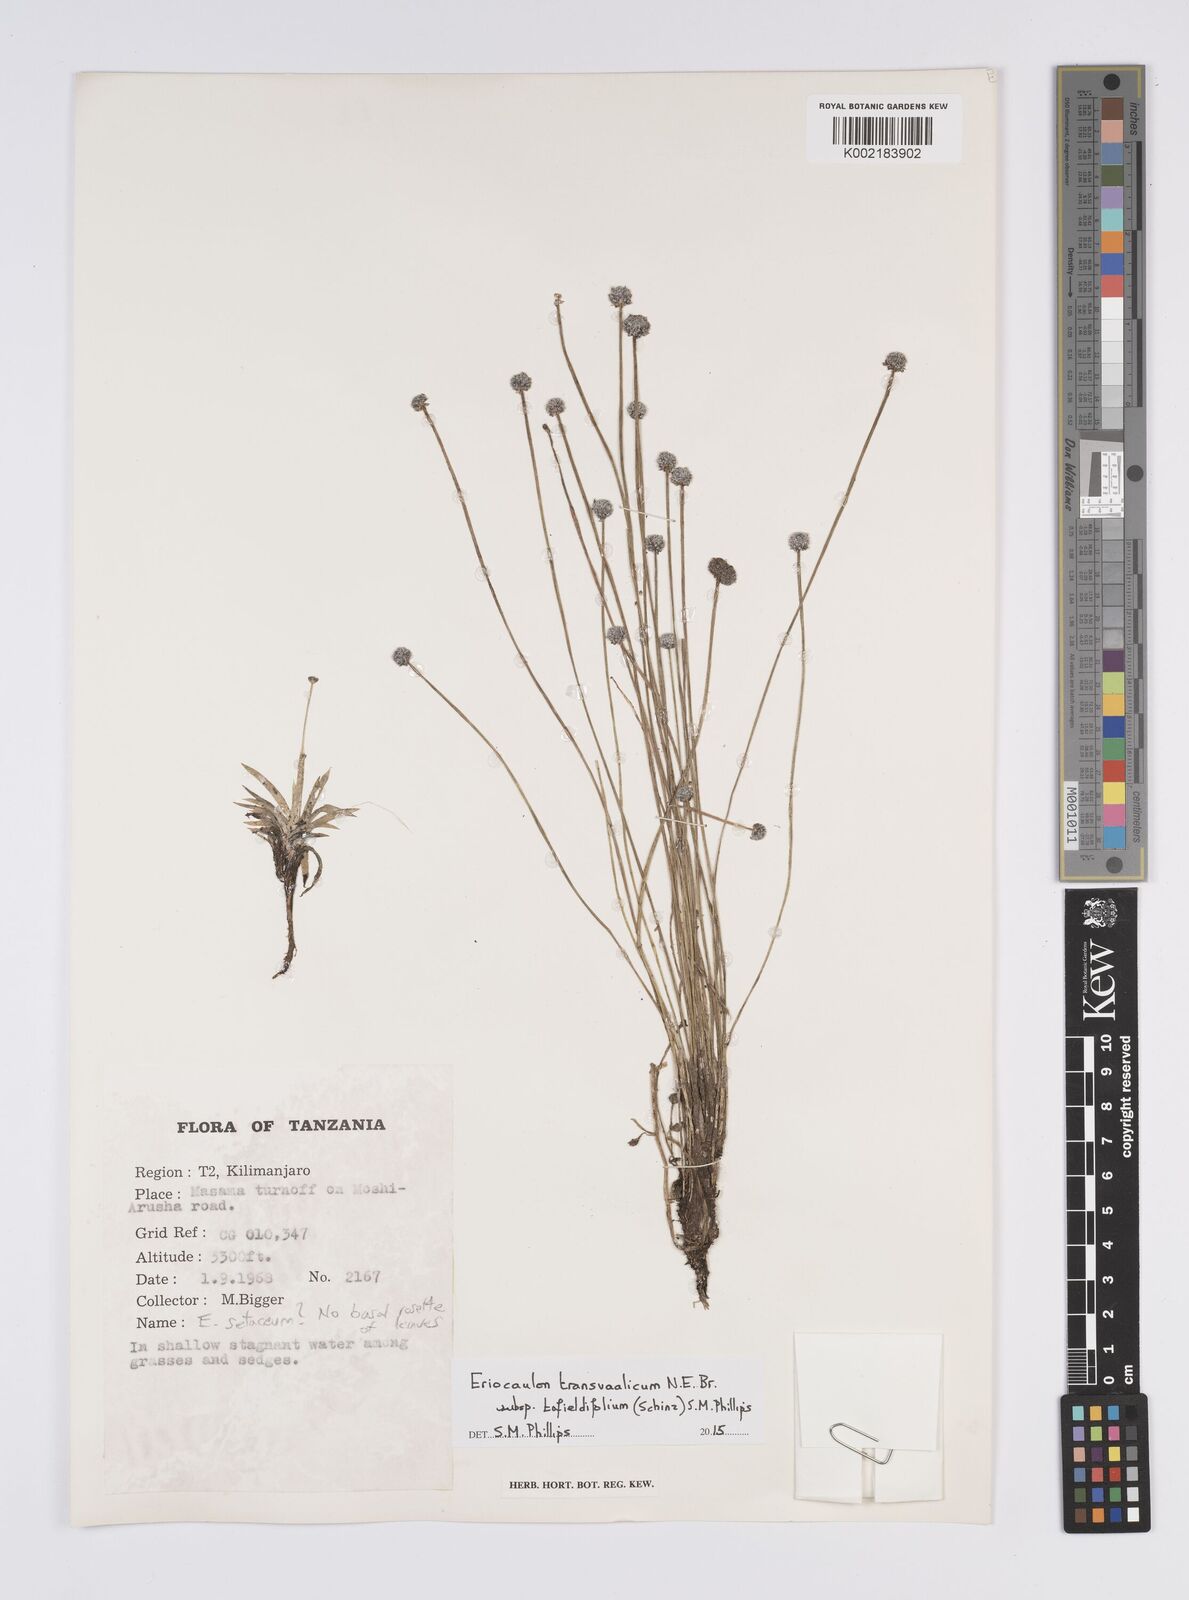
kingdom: Plantae
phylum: Tracheophyta
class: Liliopsida
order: Poales
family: Eriocaulaceae
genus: Eriocaulon
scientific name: Eriocaulon transvaalicum
